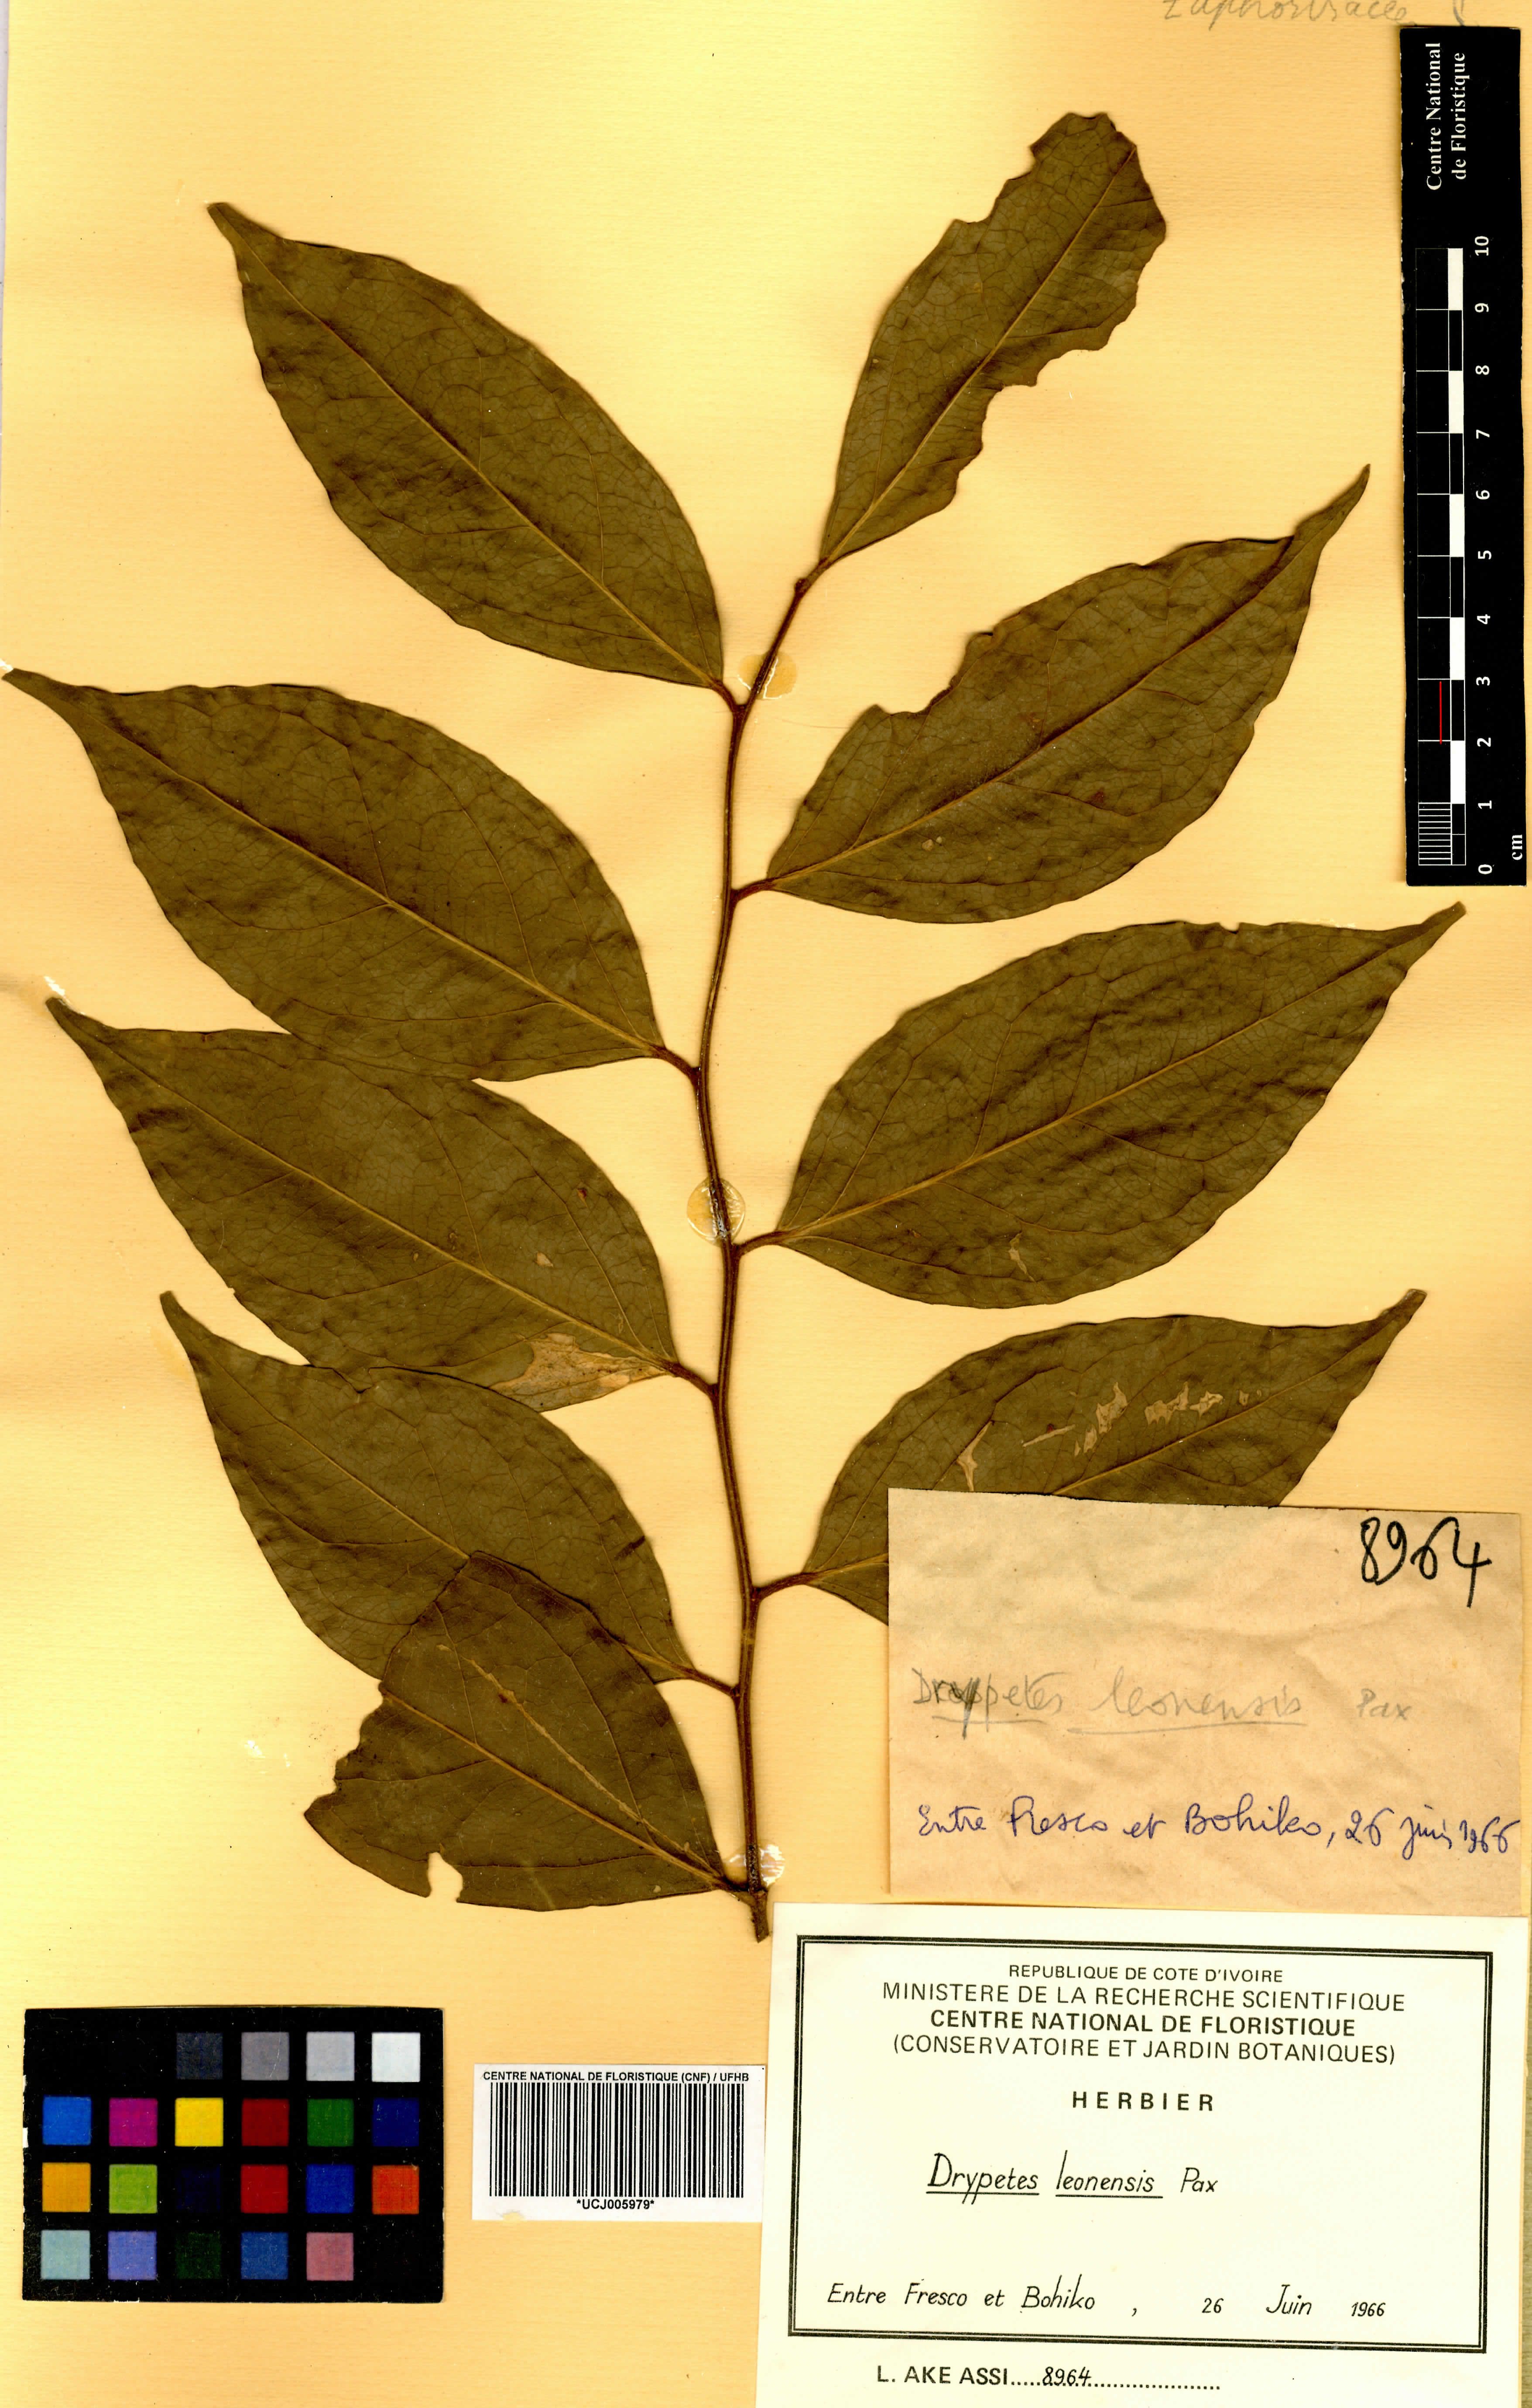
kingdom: Plantae
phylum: Tracheophyta
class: Magnoliopsida
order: Malpighiales
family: Putranjivaceae
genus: Drypetes
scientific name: Drypetes leonensis
